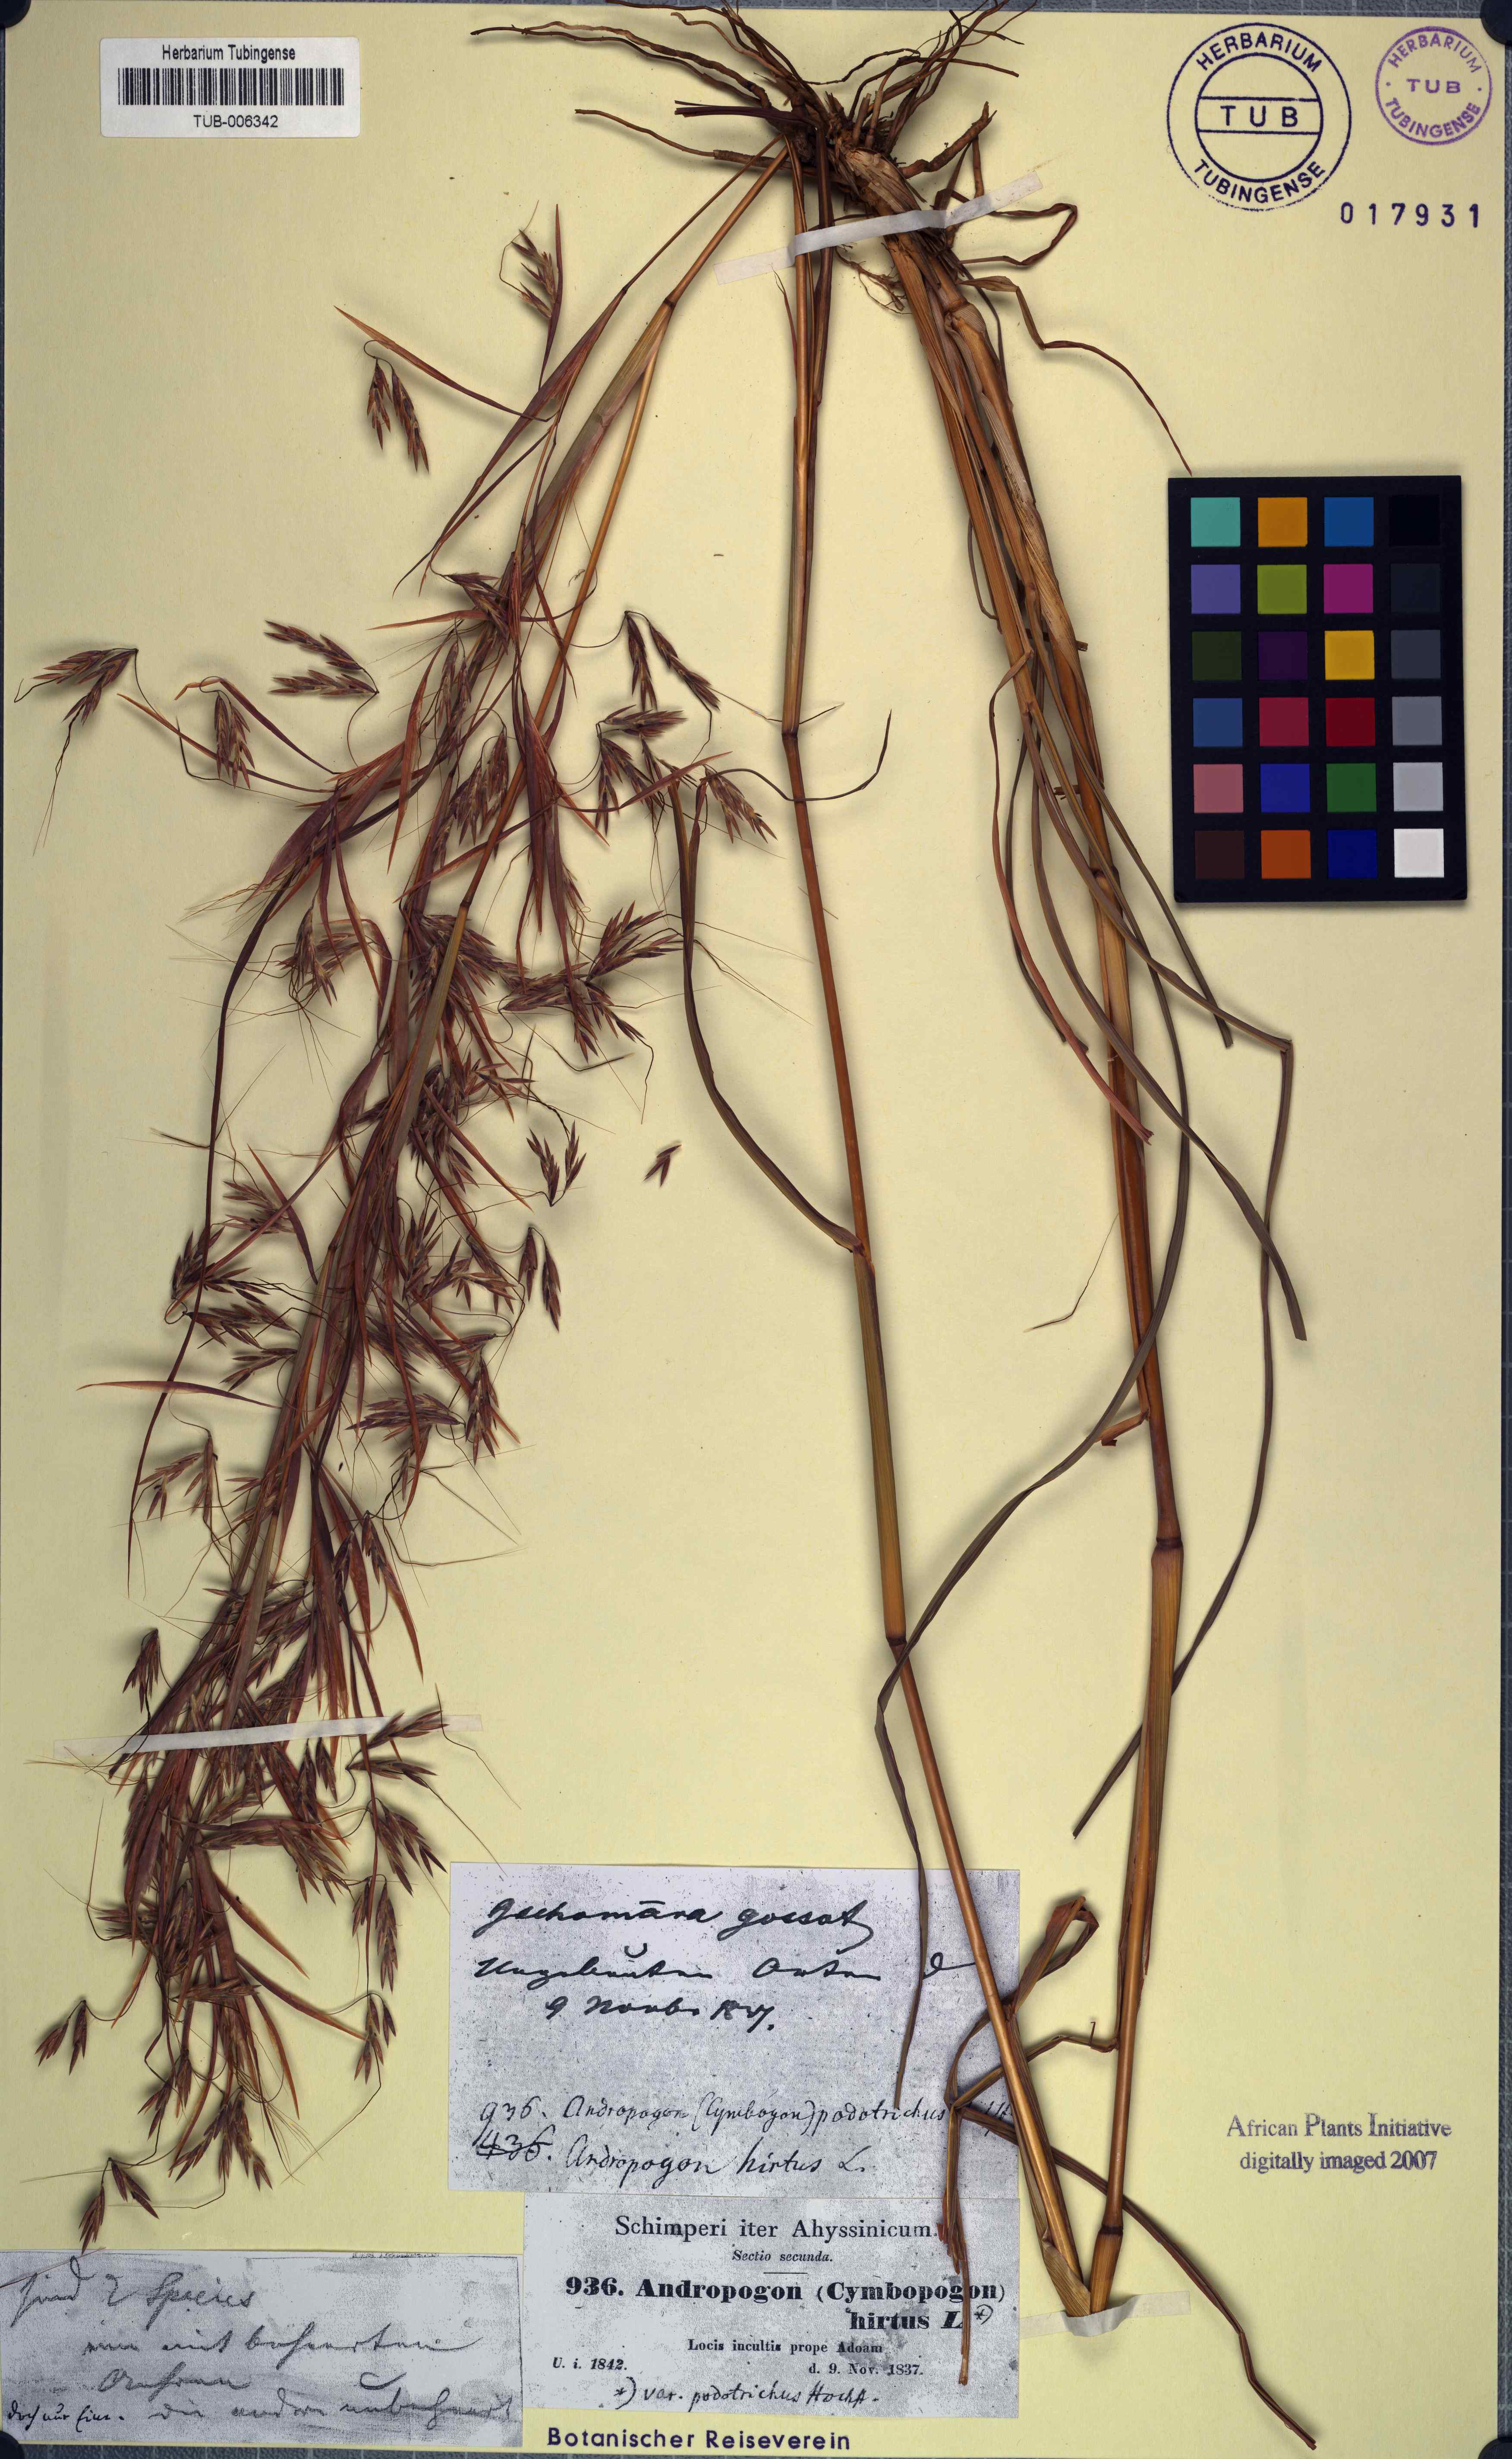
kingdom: Plantae
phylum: Tracheophyta
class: Liliopsida
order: Poales
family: Poaceae
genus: Hyparrhenia
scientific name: Hyparrhenia hirta
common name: Thatching grass
